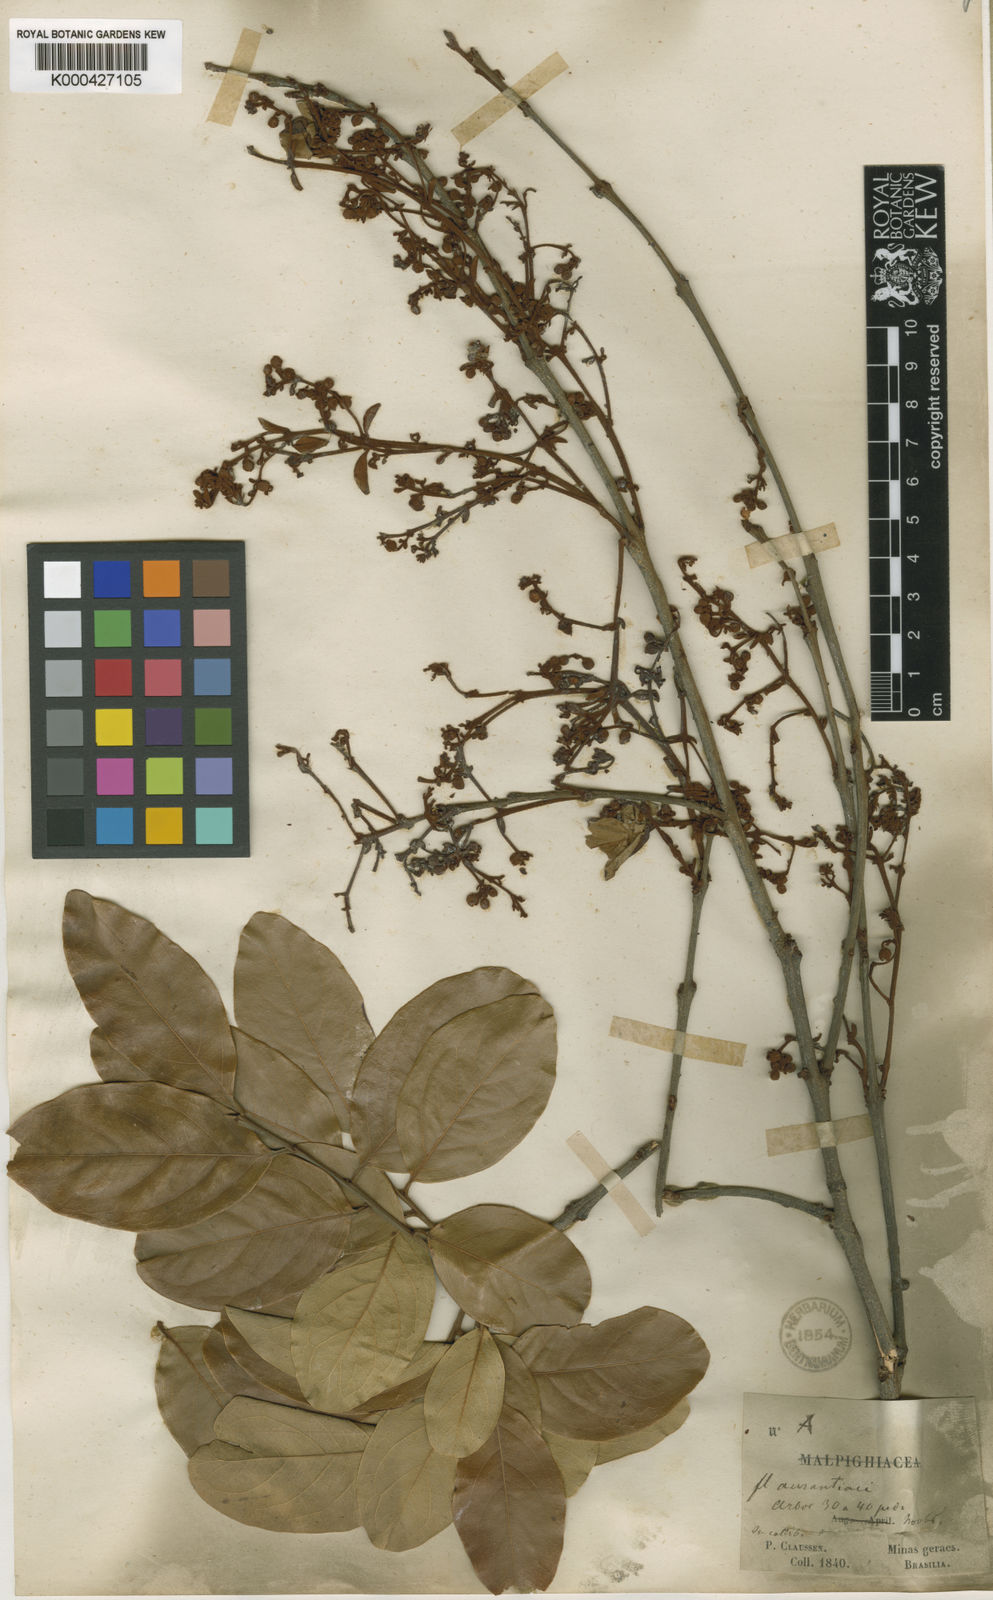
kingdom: Plantae
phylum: Tracheophyta
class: Magnoliopsida
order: Malpighiales
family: Malpighiaceae
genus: Heteropterys
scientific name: Heteropterys xanthophylla
